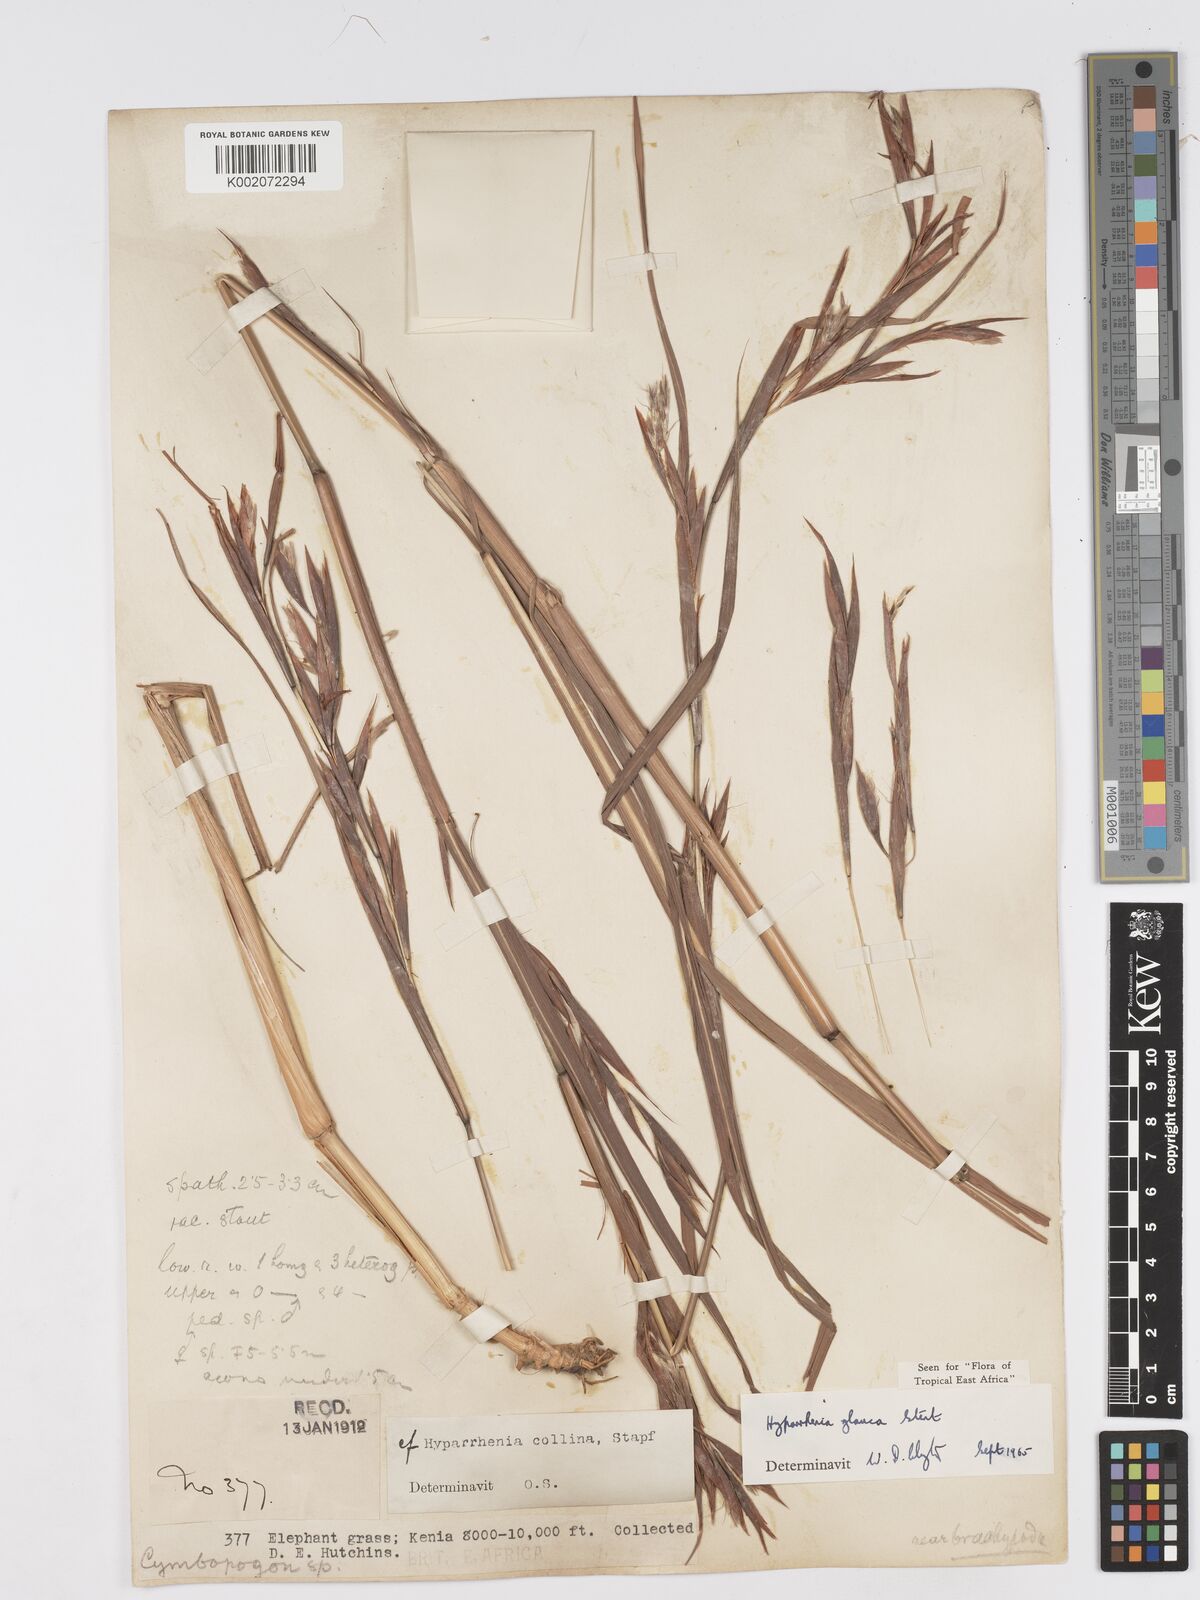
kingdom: Plantae
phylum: Tracheophyta
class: Liliopsida
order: Poales
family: Poaceae
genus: Hyparrhenia
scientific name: Hyparrhenia tamba
